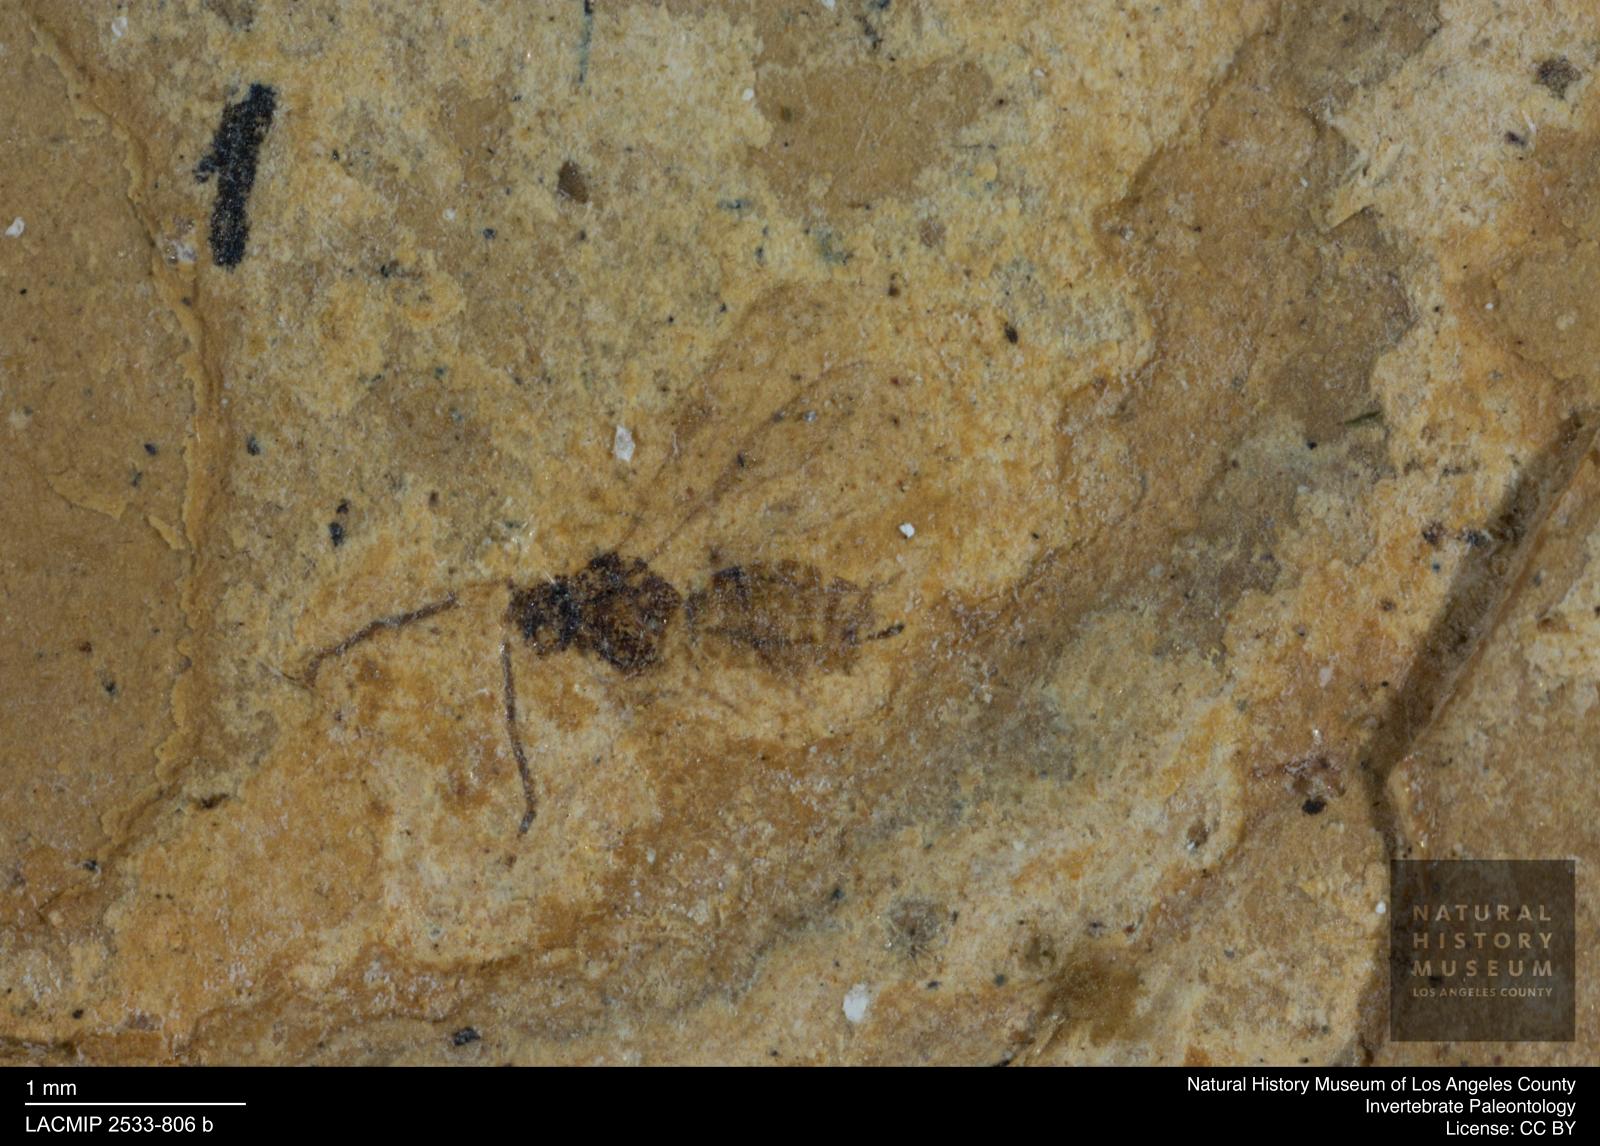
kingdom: Animalia
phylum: Arthropoda
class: Insecta
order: Hymenoptera
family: Braconidae
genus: Pentapleura
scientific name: Pentapleura longipennis
